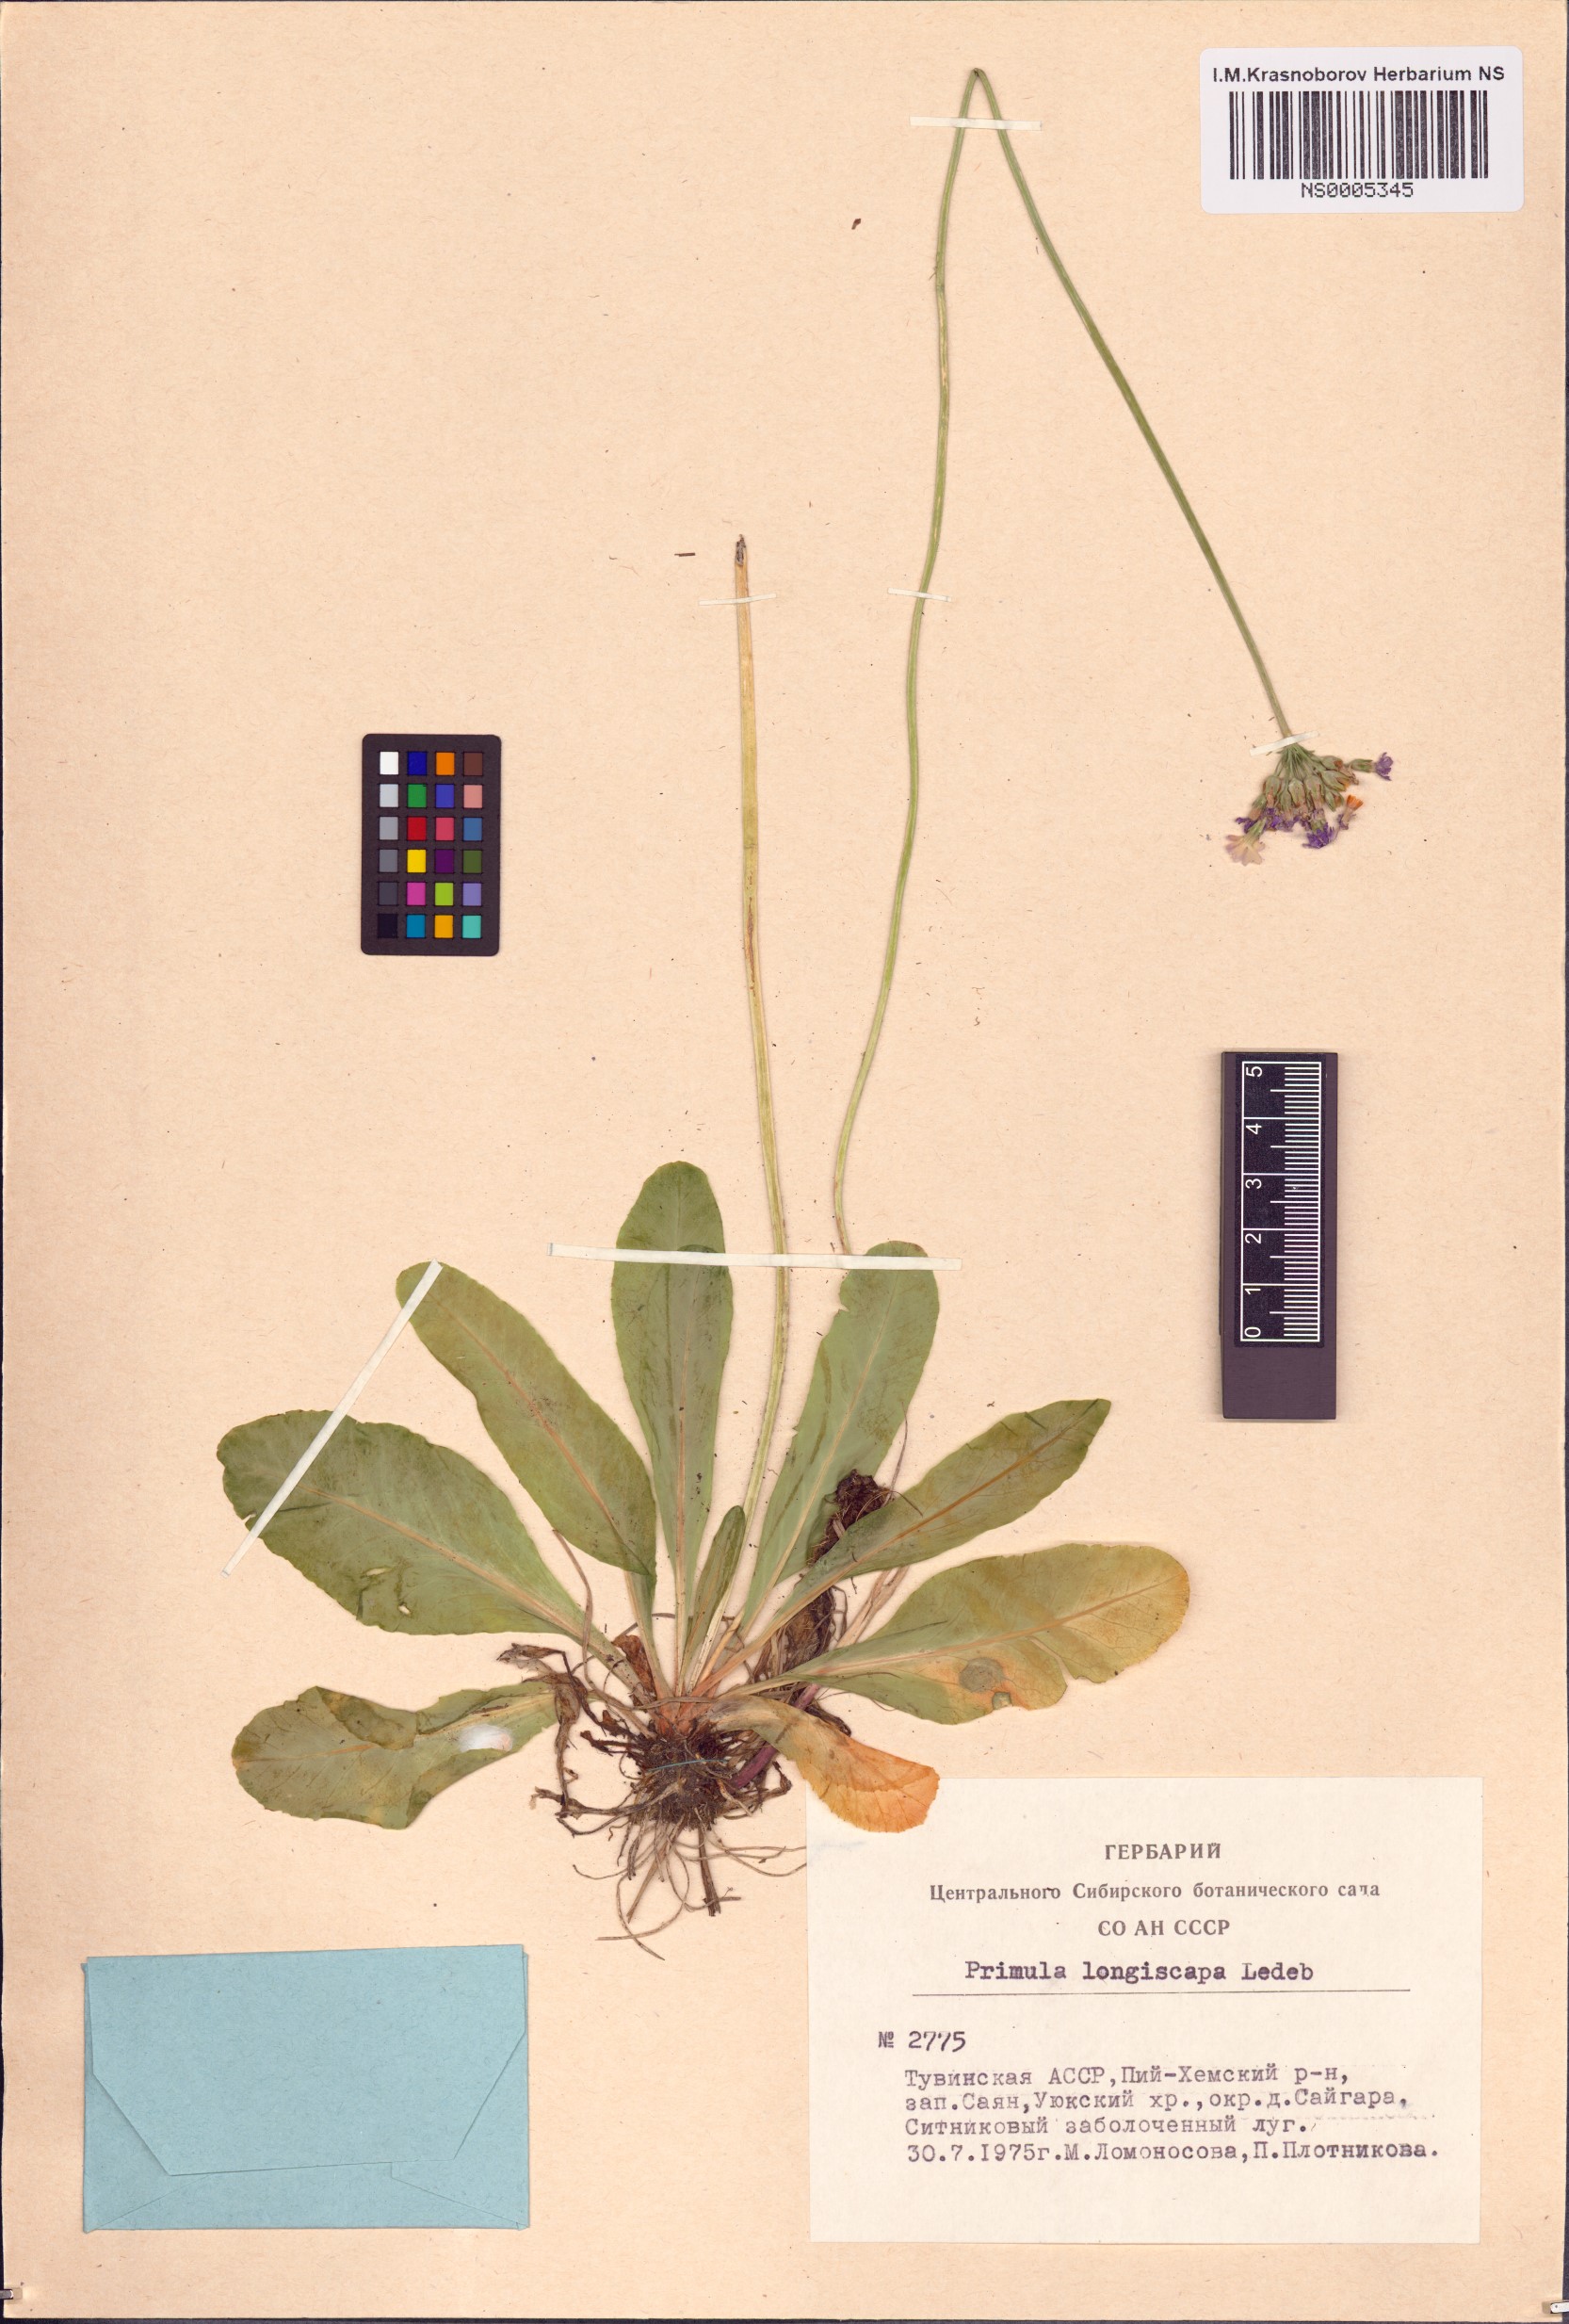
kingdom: Plantae
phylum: Tracheophyta
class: Magnoliopsida
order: Ericales
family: Primulaceae
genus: Primula
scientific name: Primula longiscapa
